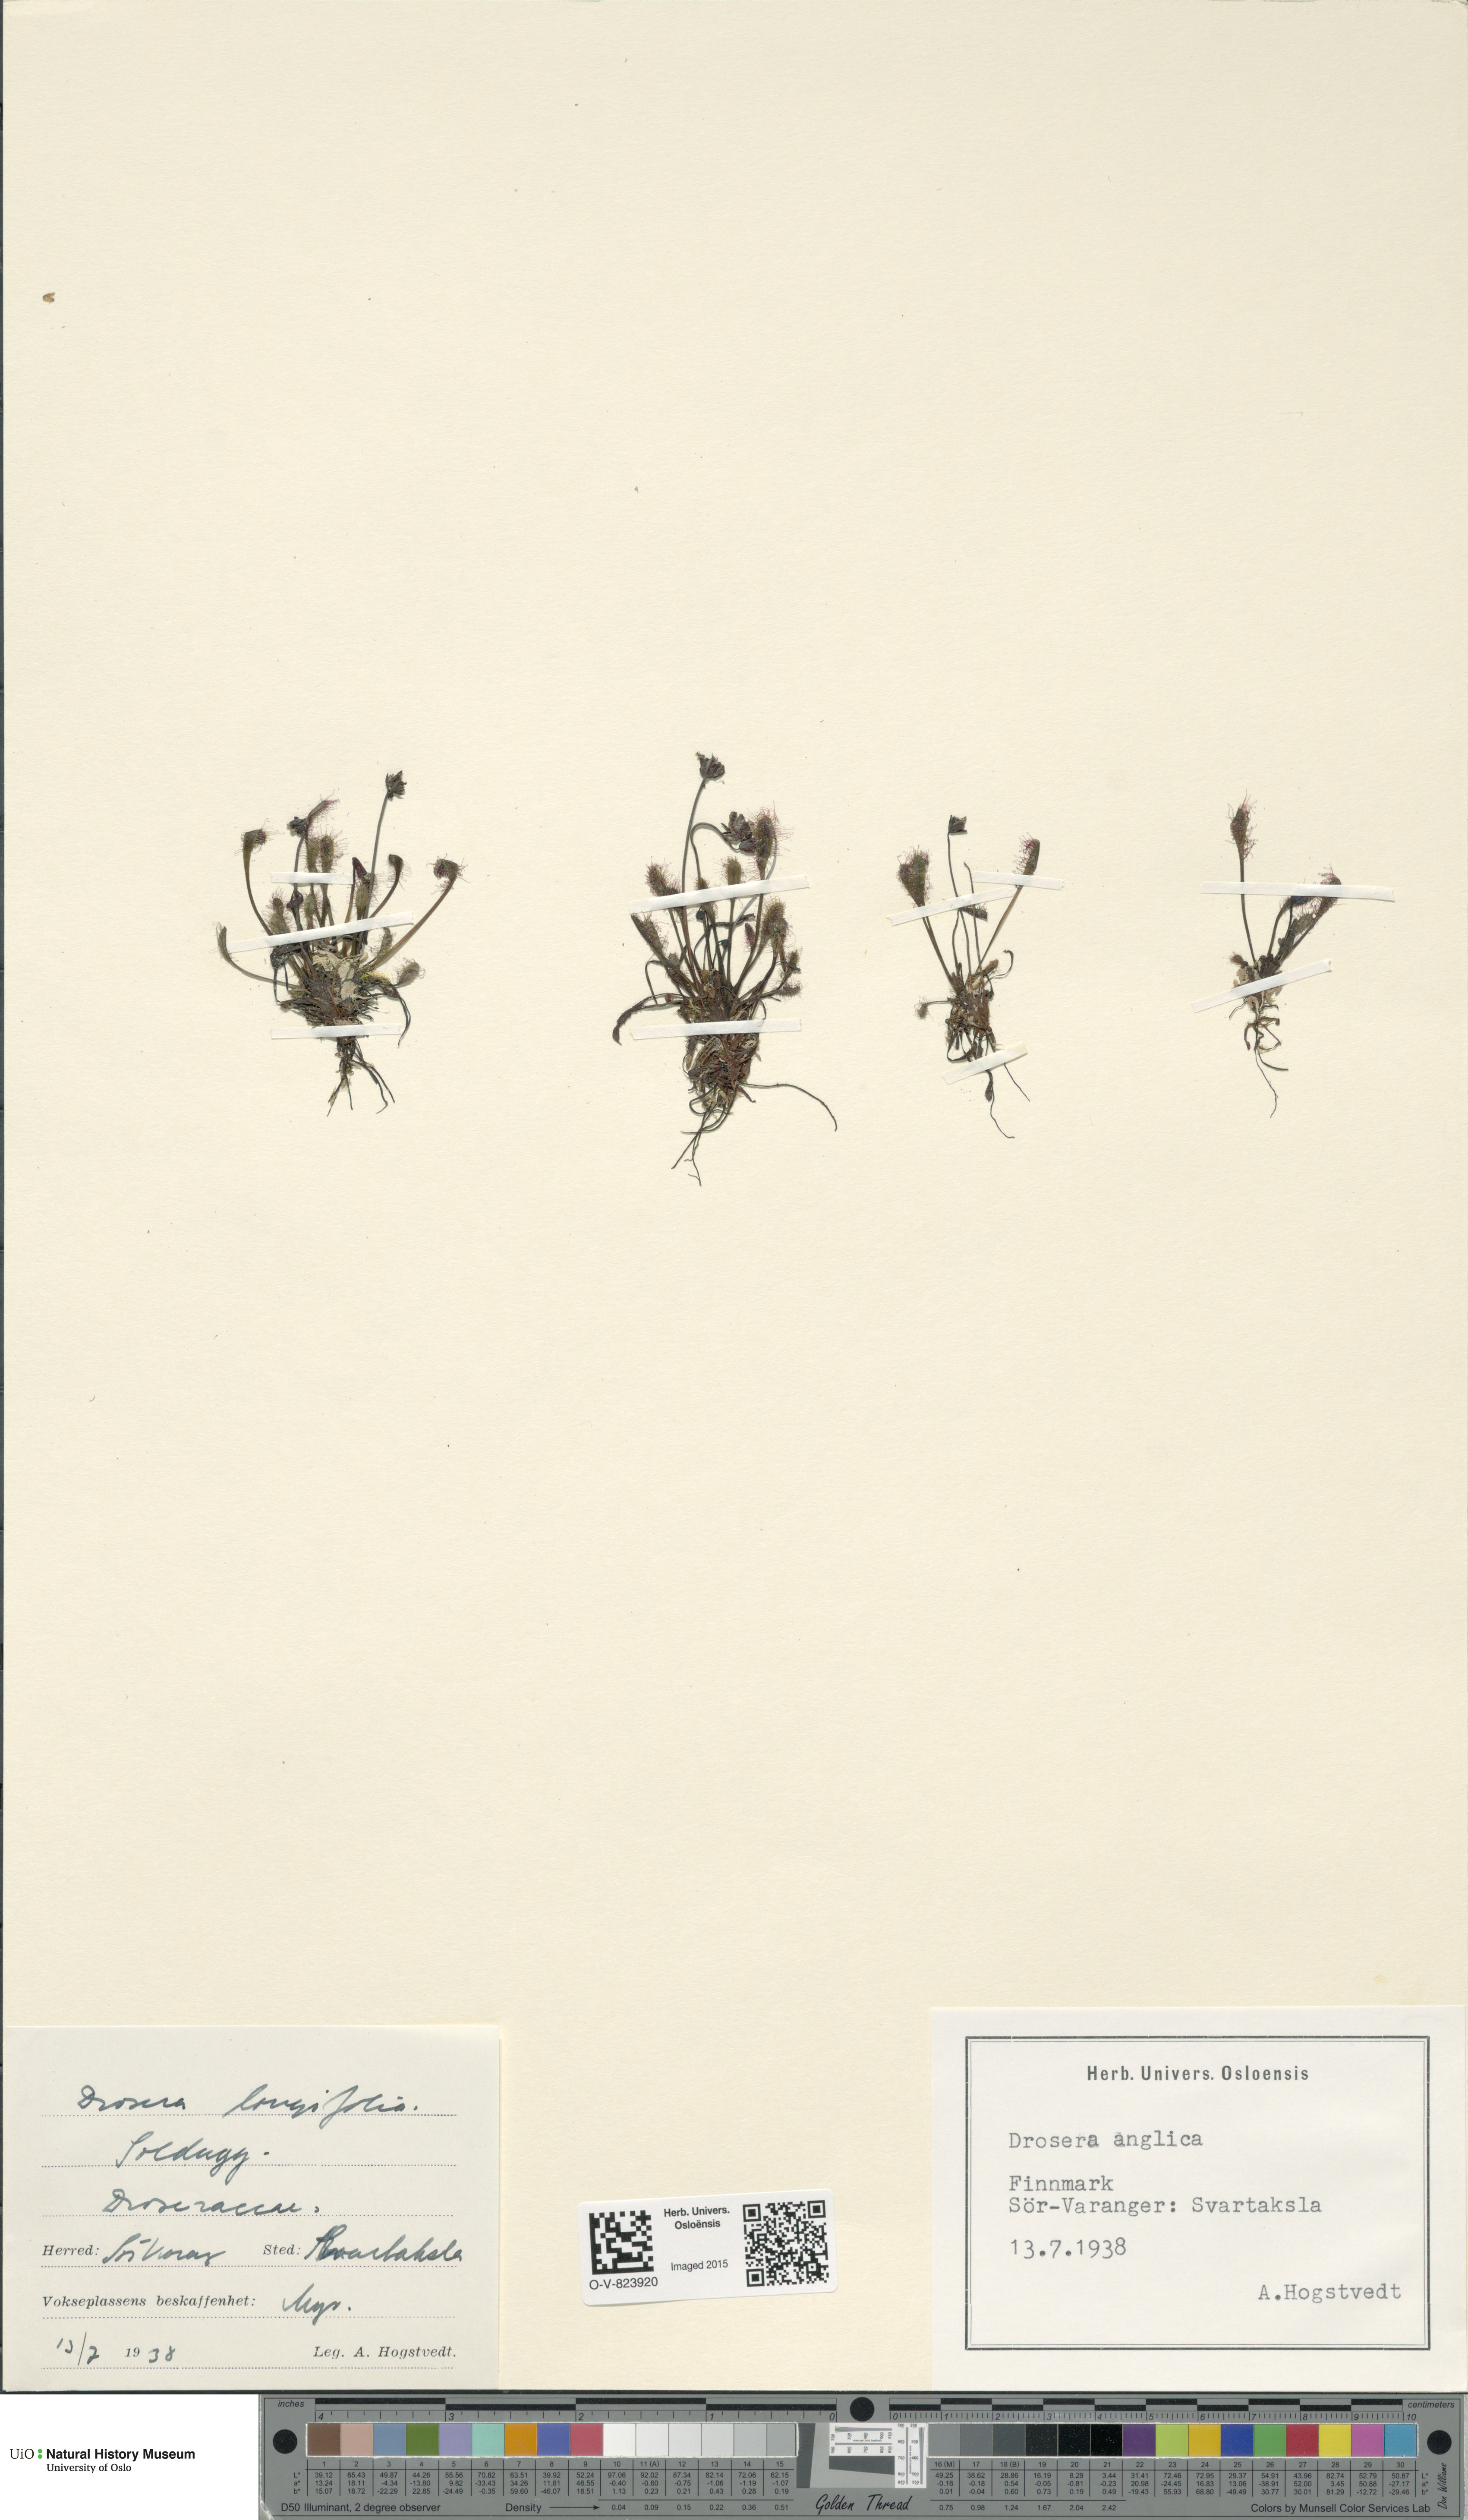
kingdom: Plantae
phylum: Tracheophyta
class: Magnoliopsida
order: Caryophyllales
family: Droseraceae
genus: Drosera
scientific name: Drosera anglica
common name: Great sundew
